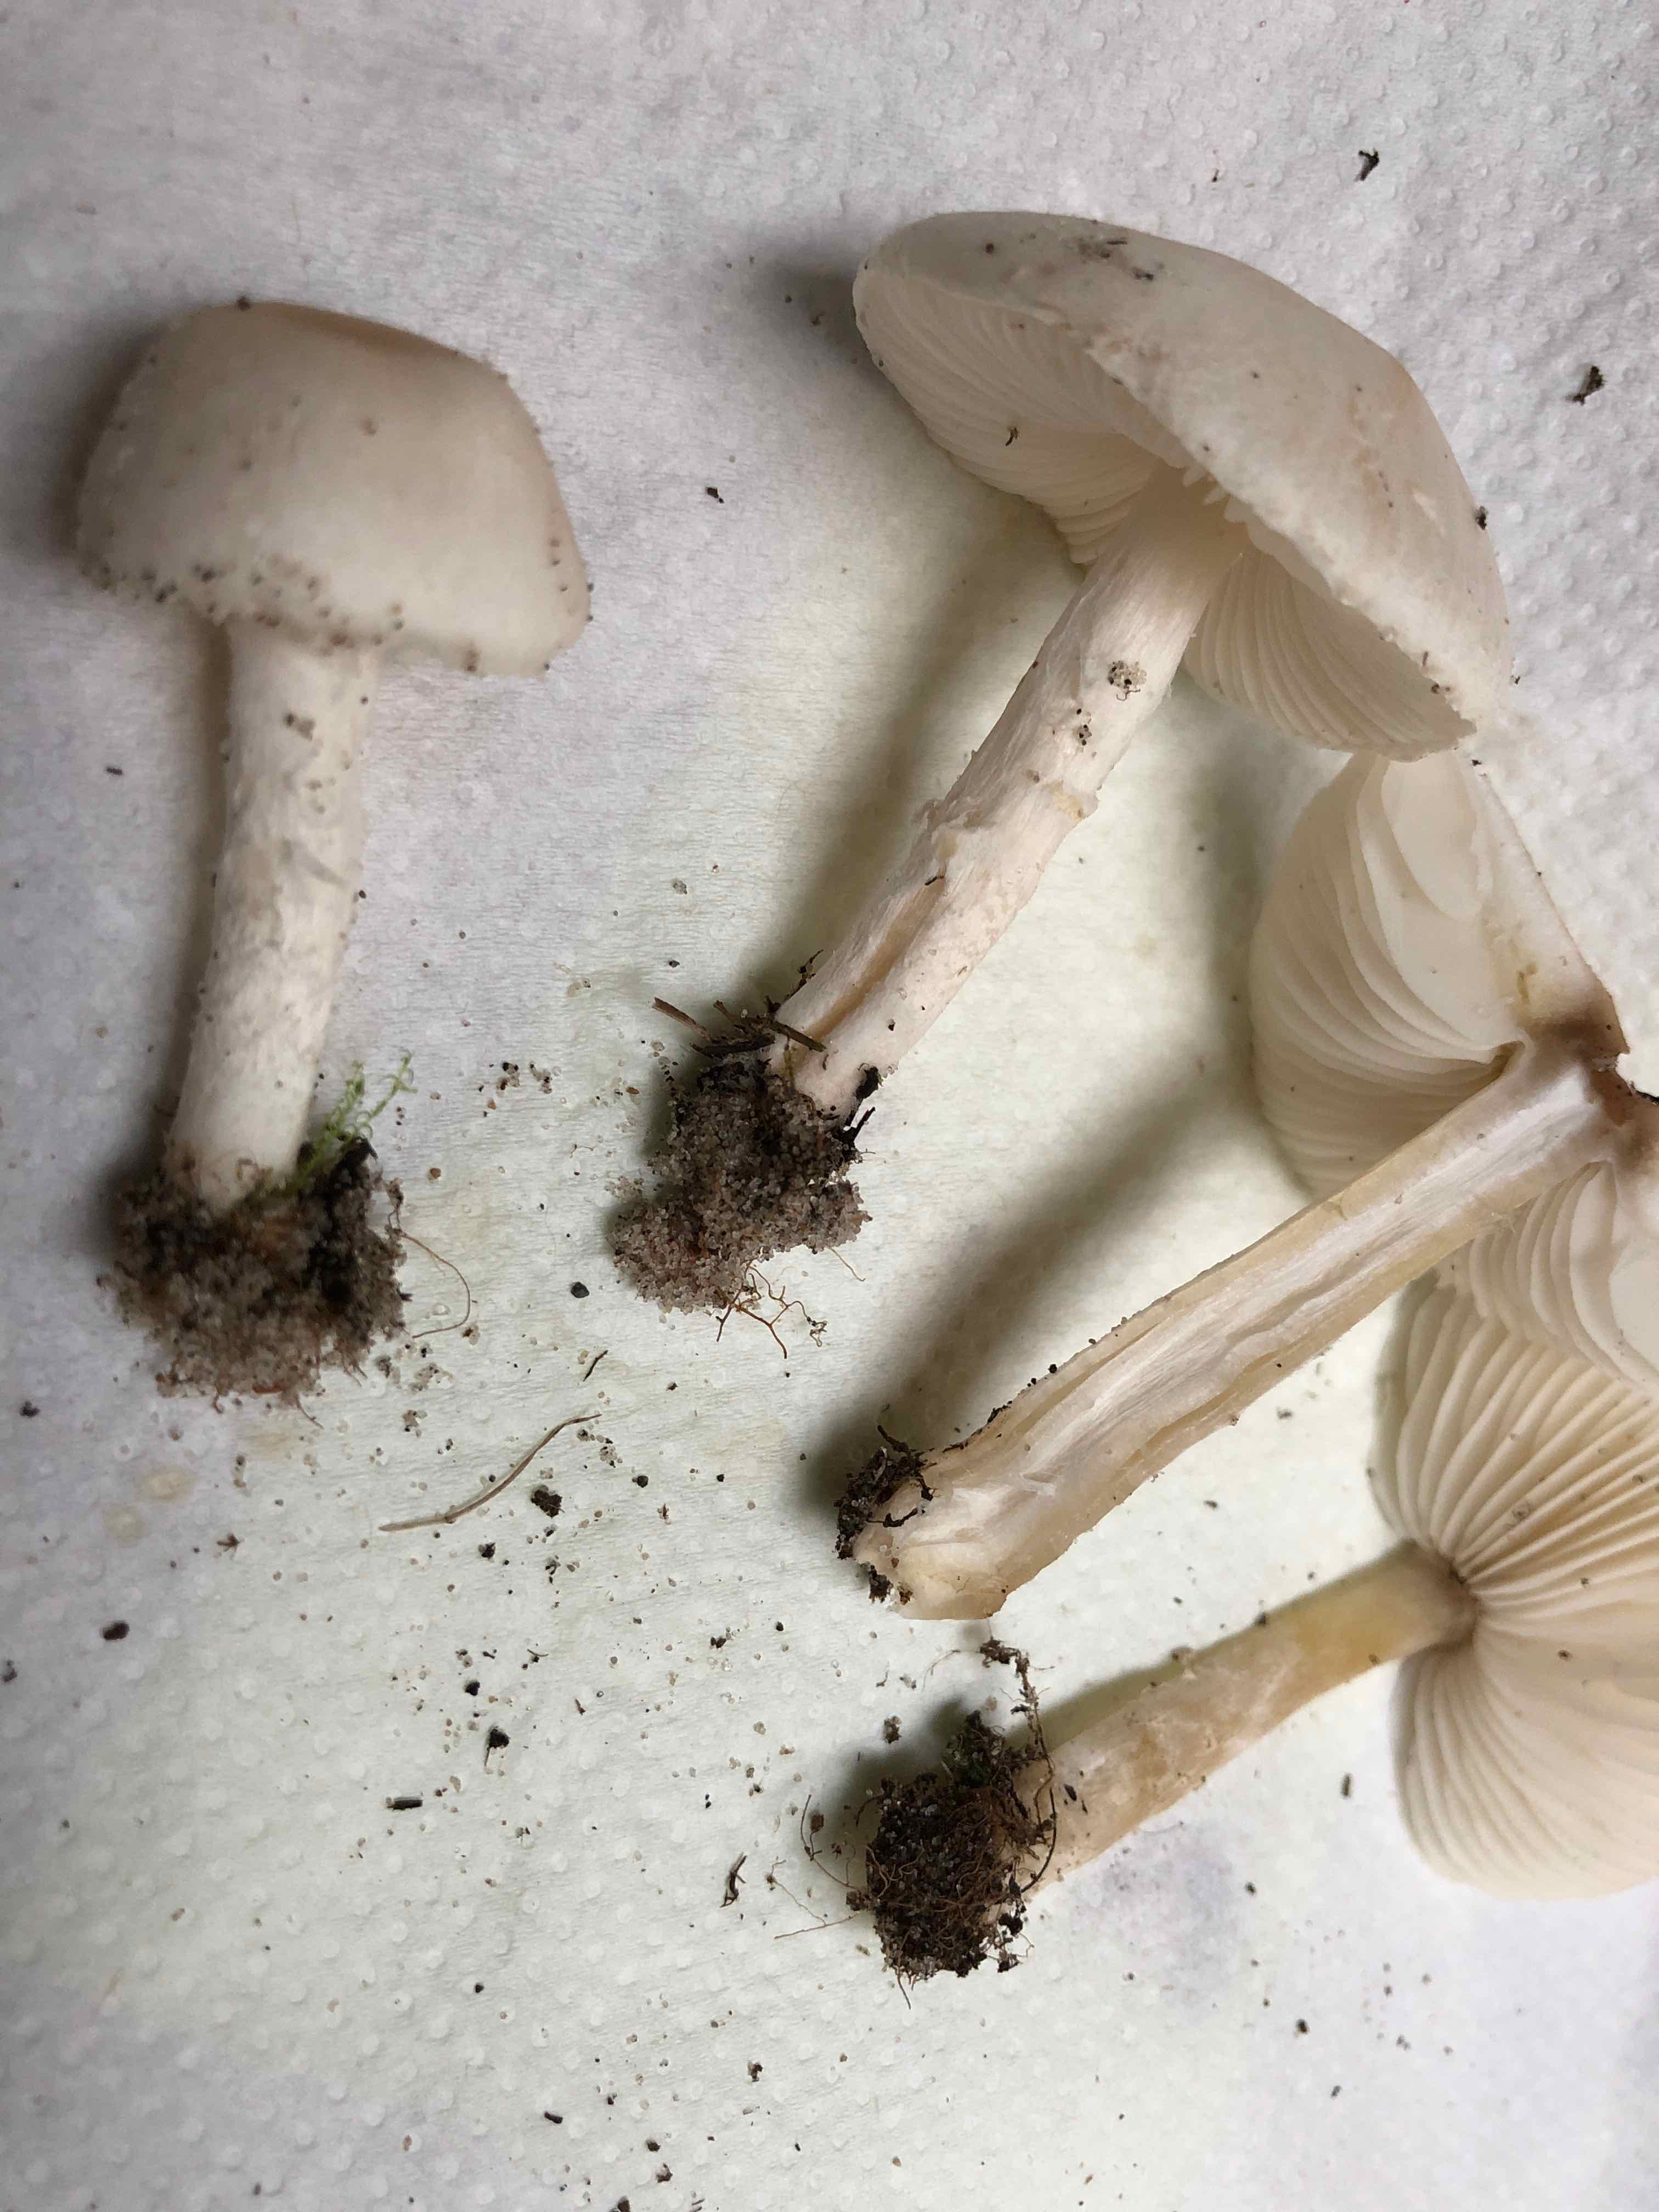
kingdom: Fungi
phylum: Basidiomycota
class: Agaricomycetes
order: Agaricales
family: Agaricaceae
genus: Lepiota
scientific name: Lepiota erminea
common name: hvid parasolhat
